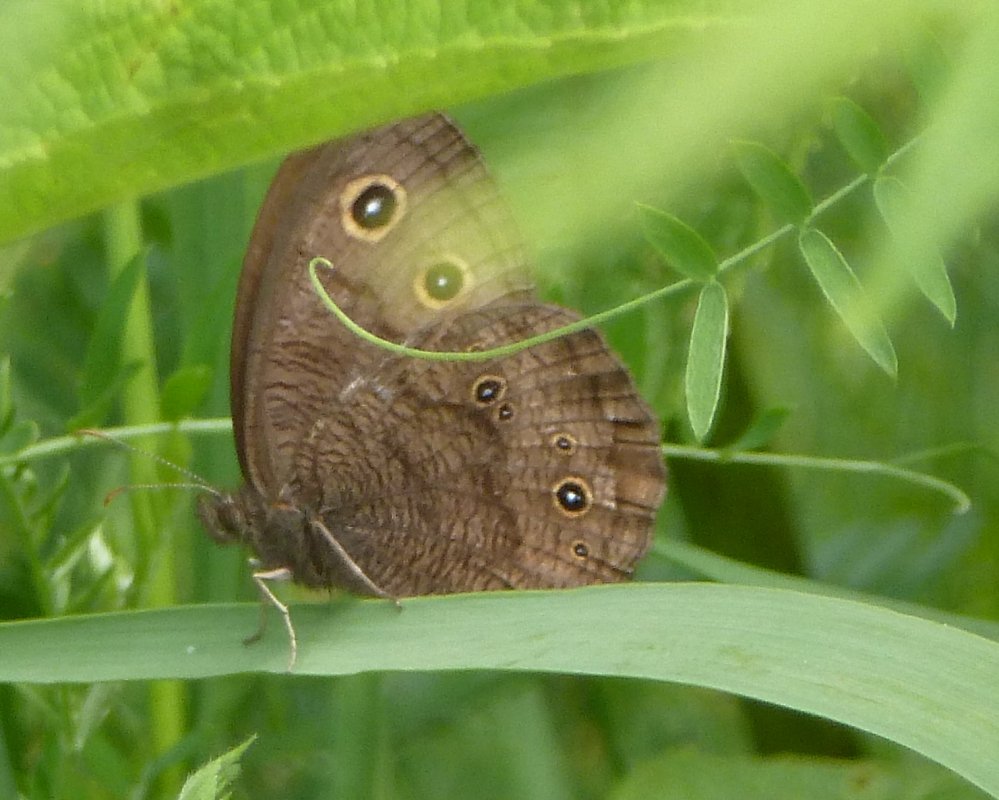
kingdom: Animalia
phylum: Arthropoda
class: Insecta
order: Lepidoptera
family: Nymphalidae
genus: Cercyonis
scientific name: Cercyonis pegala
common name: Common Wood-Nymph
